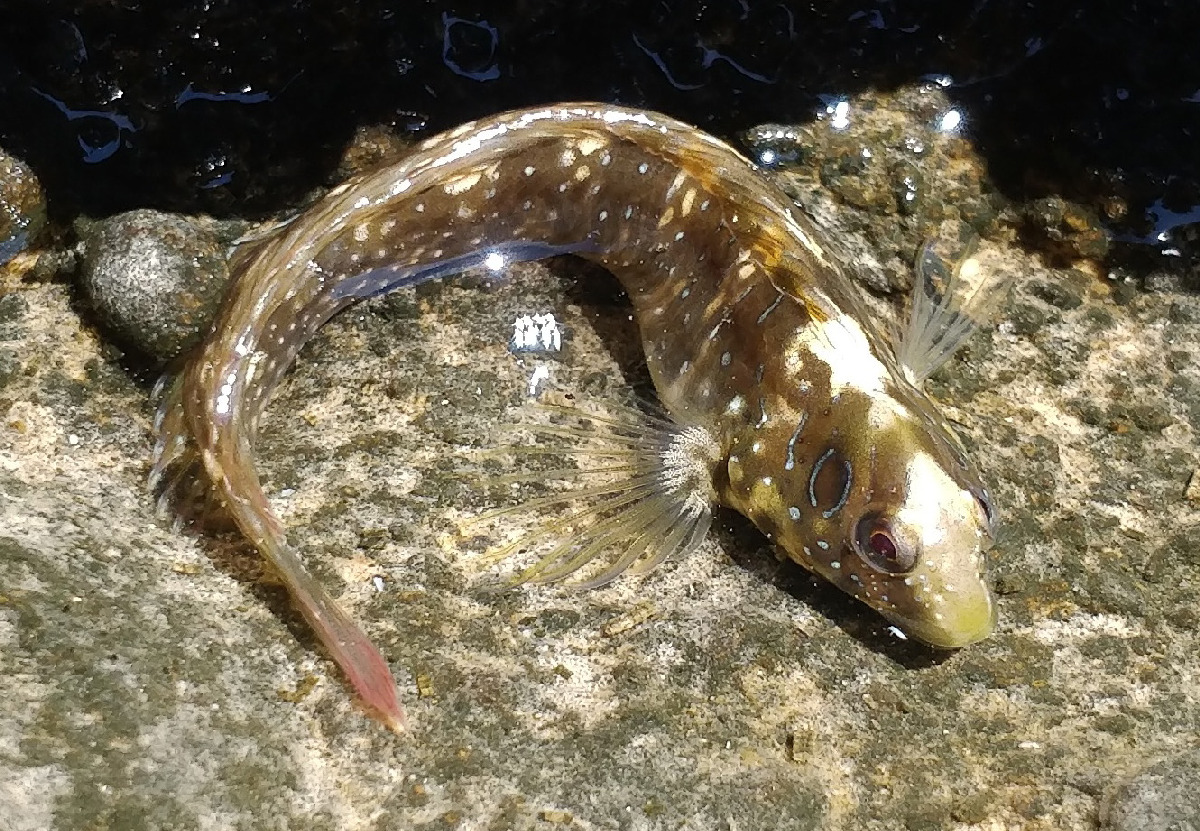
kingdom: Animalia
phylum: Chordata
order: Perciformes
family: Blenniidae
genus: Salaria
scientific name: Salaria pavo
